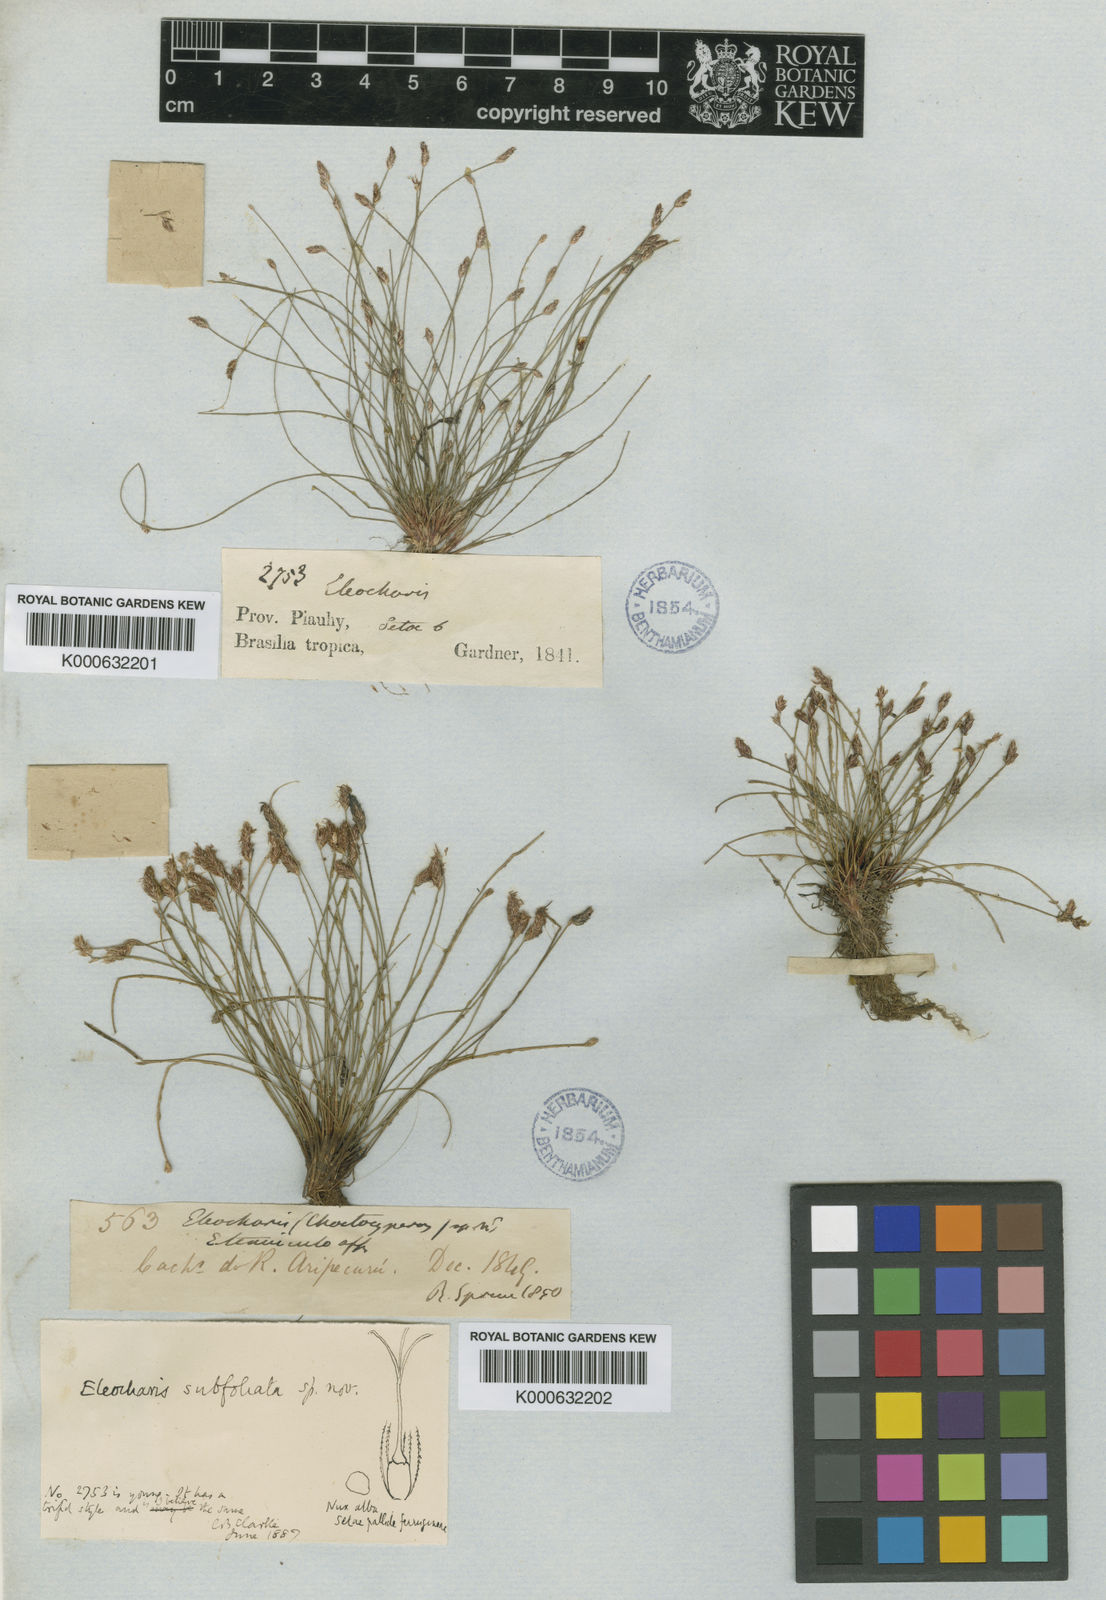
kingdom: Plantae
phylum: Tracheophyta
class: Liliopsida
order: Poales
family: Cyperaceae
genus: Eleocharis
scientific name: Eleocharis subfoliata
